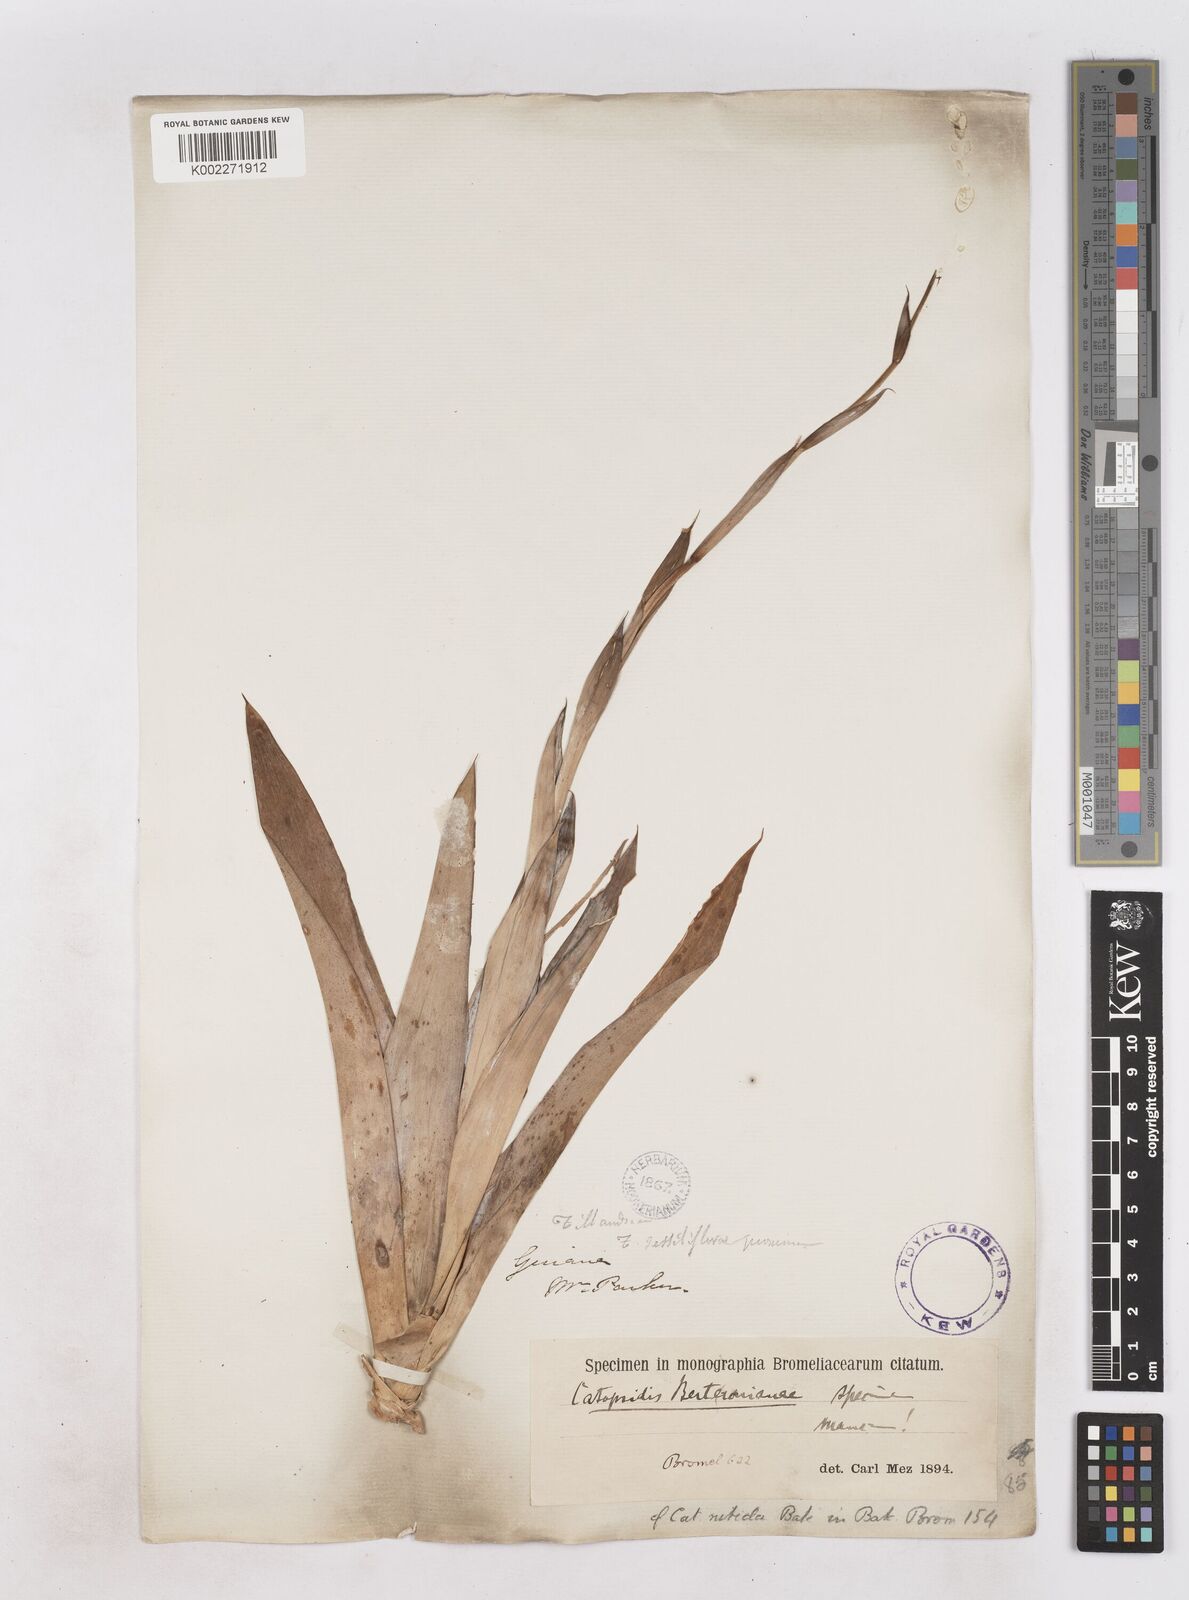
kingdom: Plantae
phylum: Tracheophyta
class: Liliopsida
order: Poales
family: Bromeliaceae
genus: Catopsis
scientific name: Catopsis berteroniana
